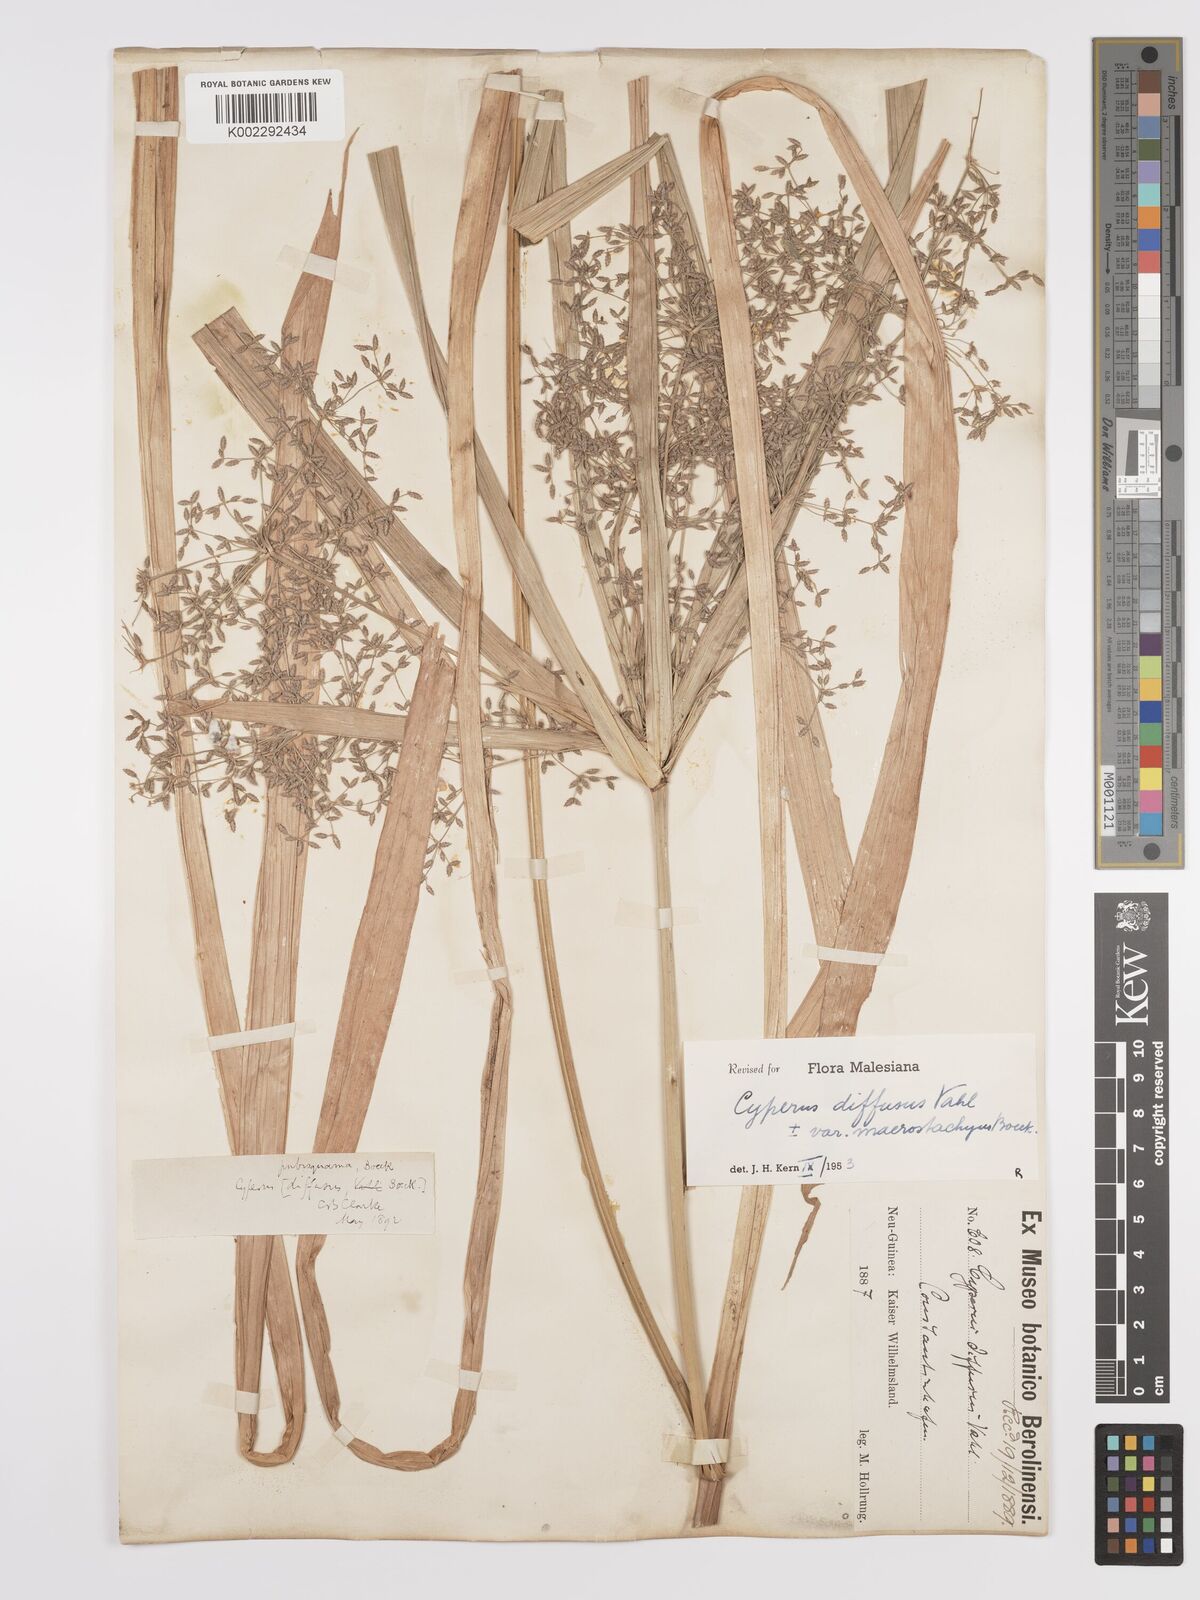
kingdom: Plantae
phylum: Tracheophyta
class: Liliopsida
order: Poales
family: Cyperaceae
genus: Cyperus
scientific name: Cyperus diffusus
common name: Dwarf umbrella grass
